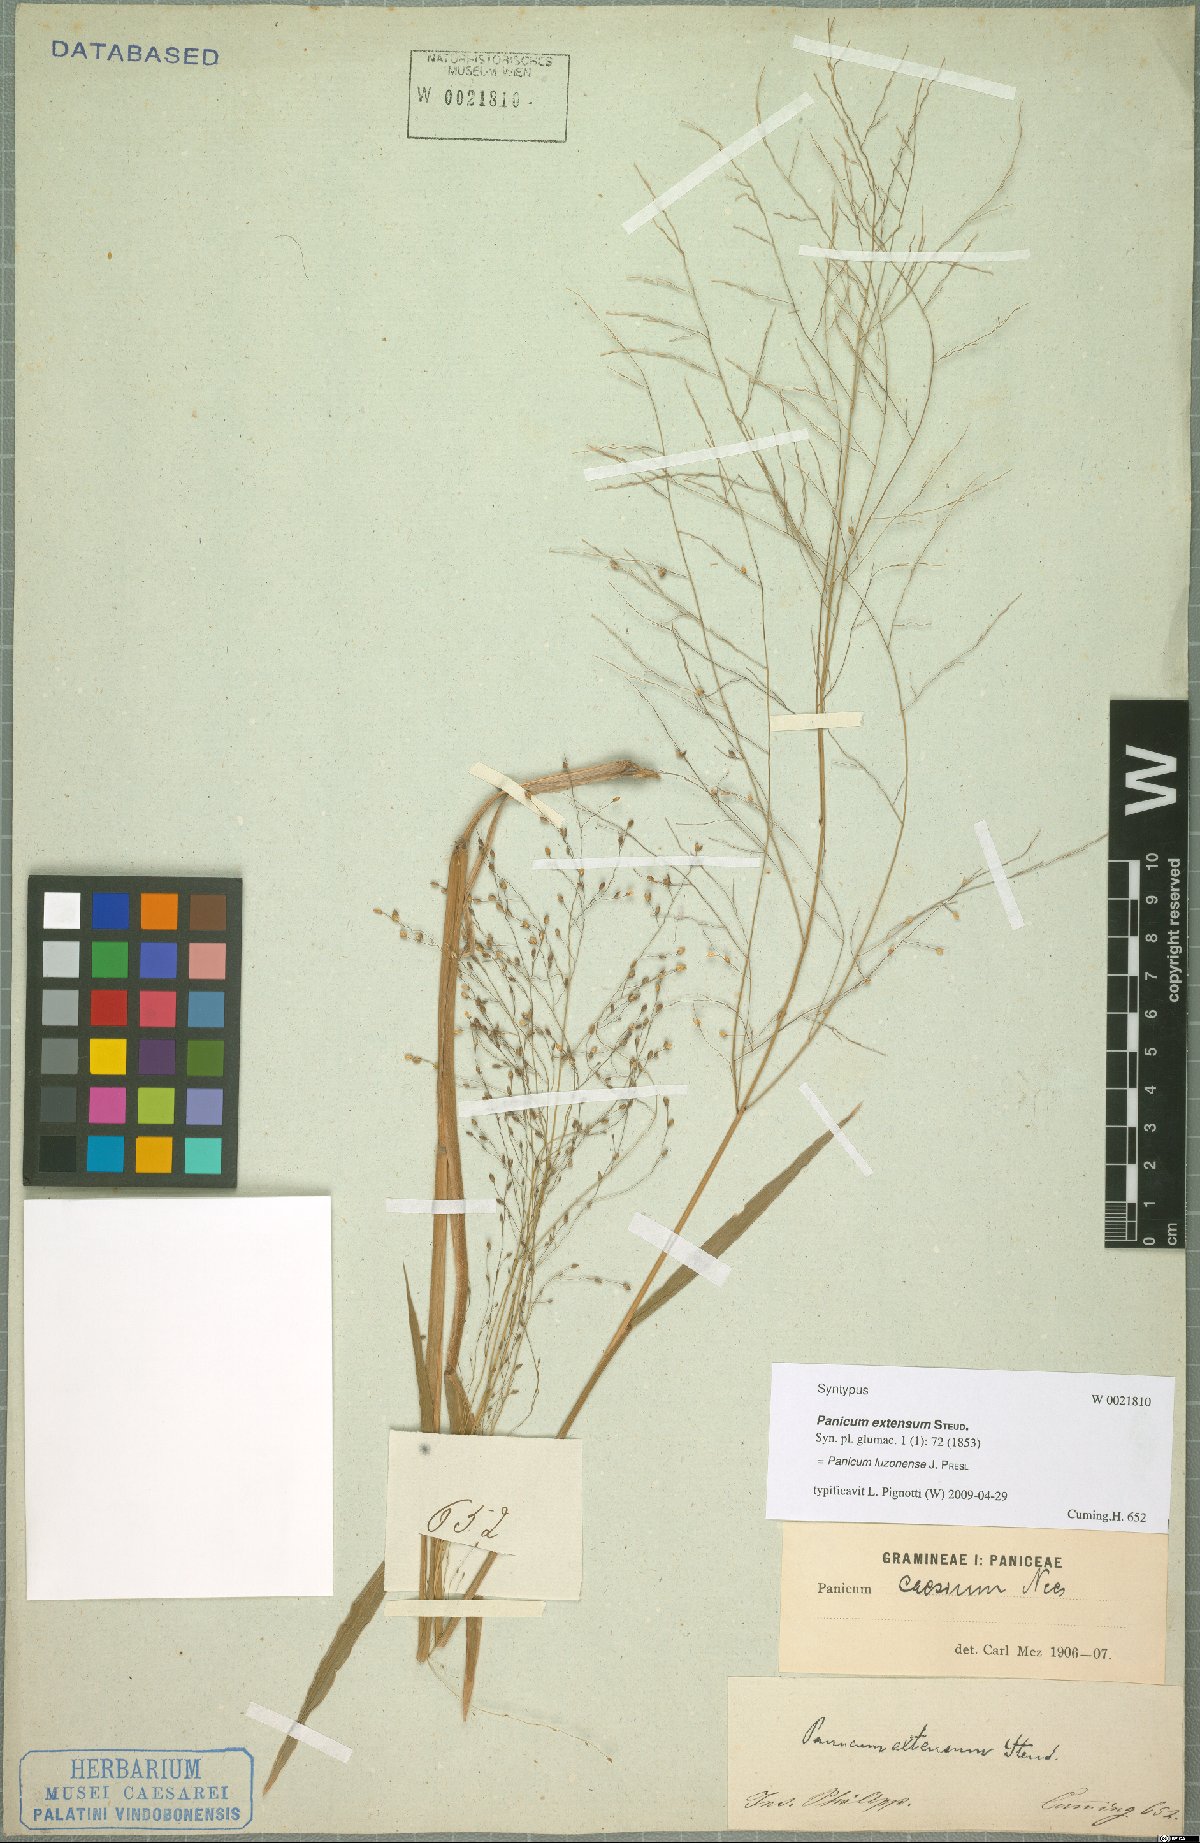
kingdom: Plantae
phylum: Tracheophyta
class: Liliopsida
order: Poales
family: Poaceae
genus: Panicum
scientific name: Panicum luzonense
